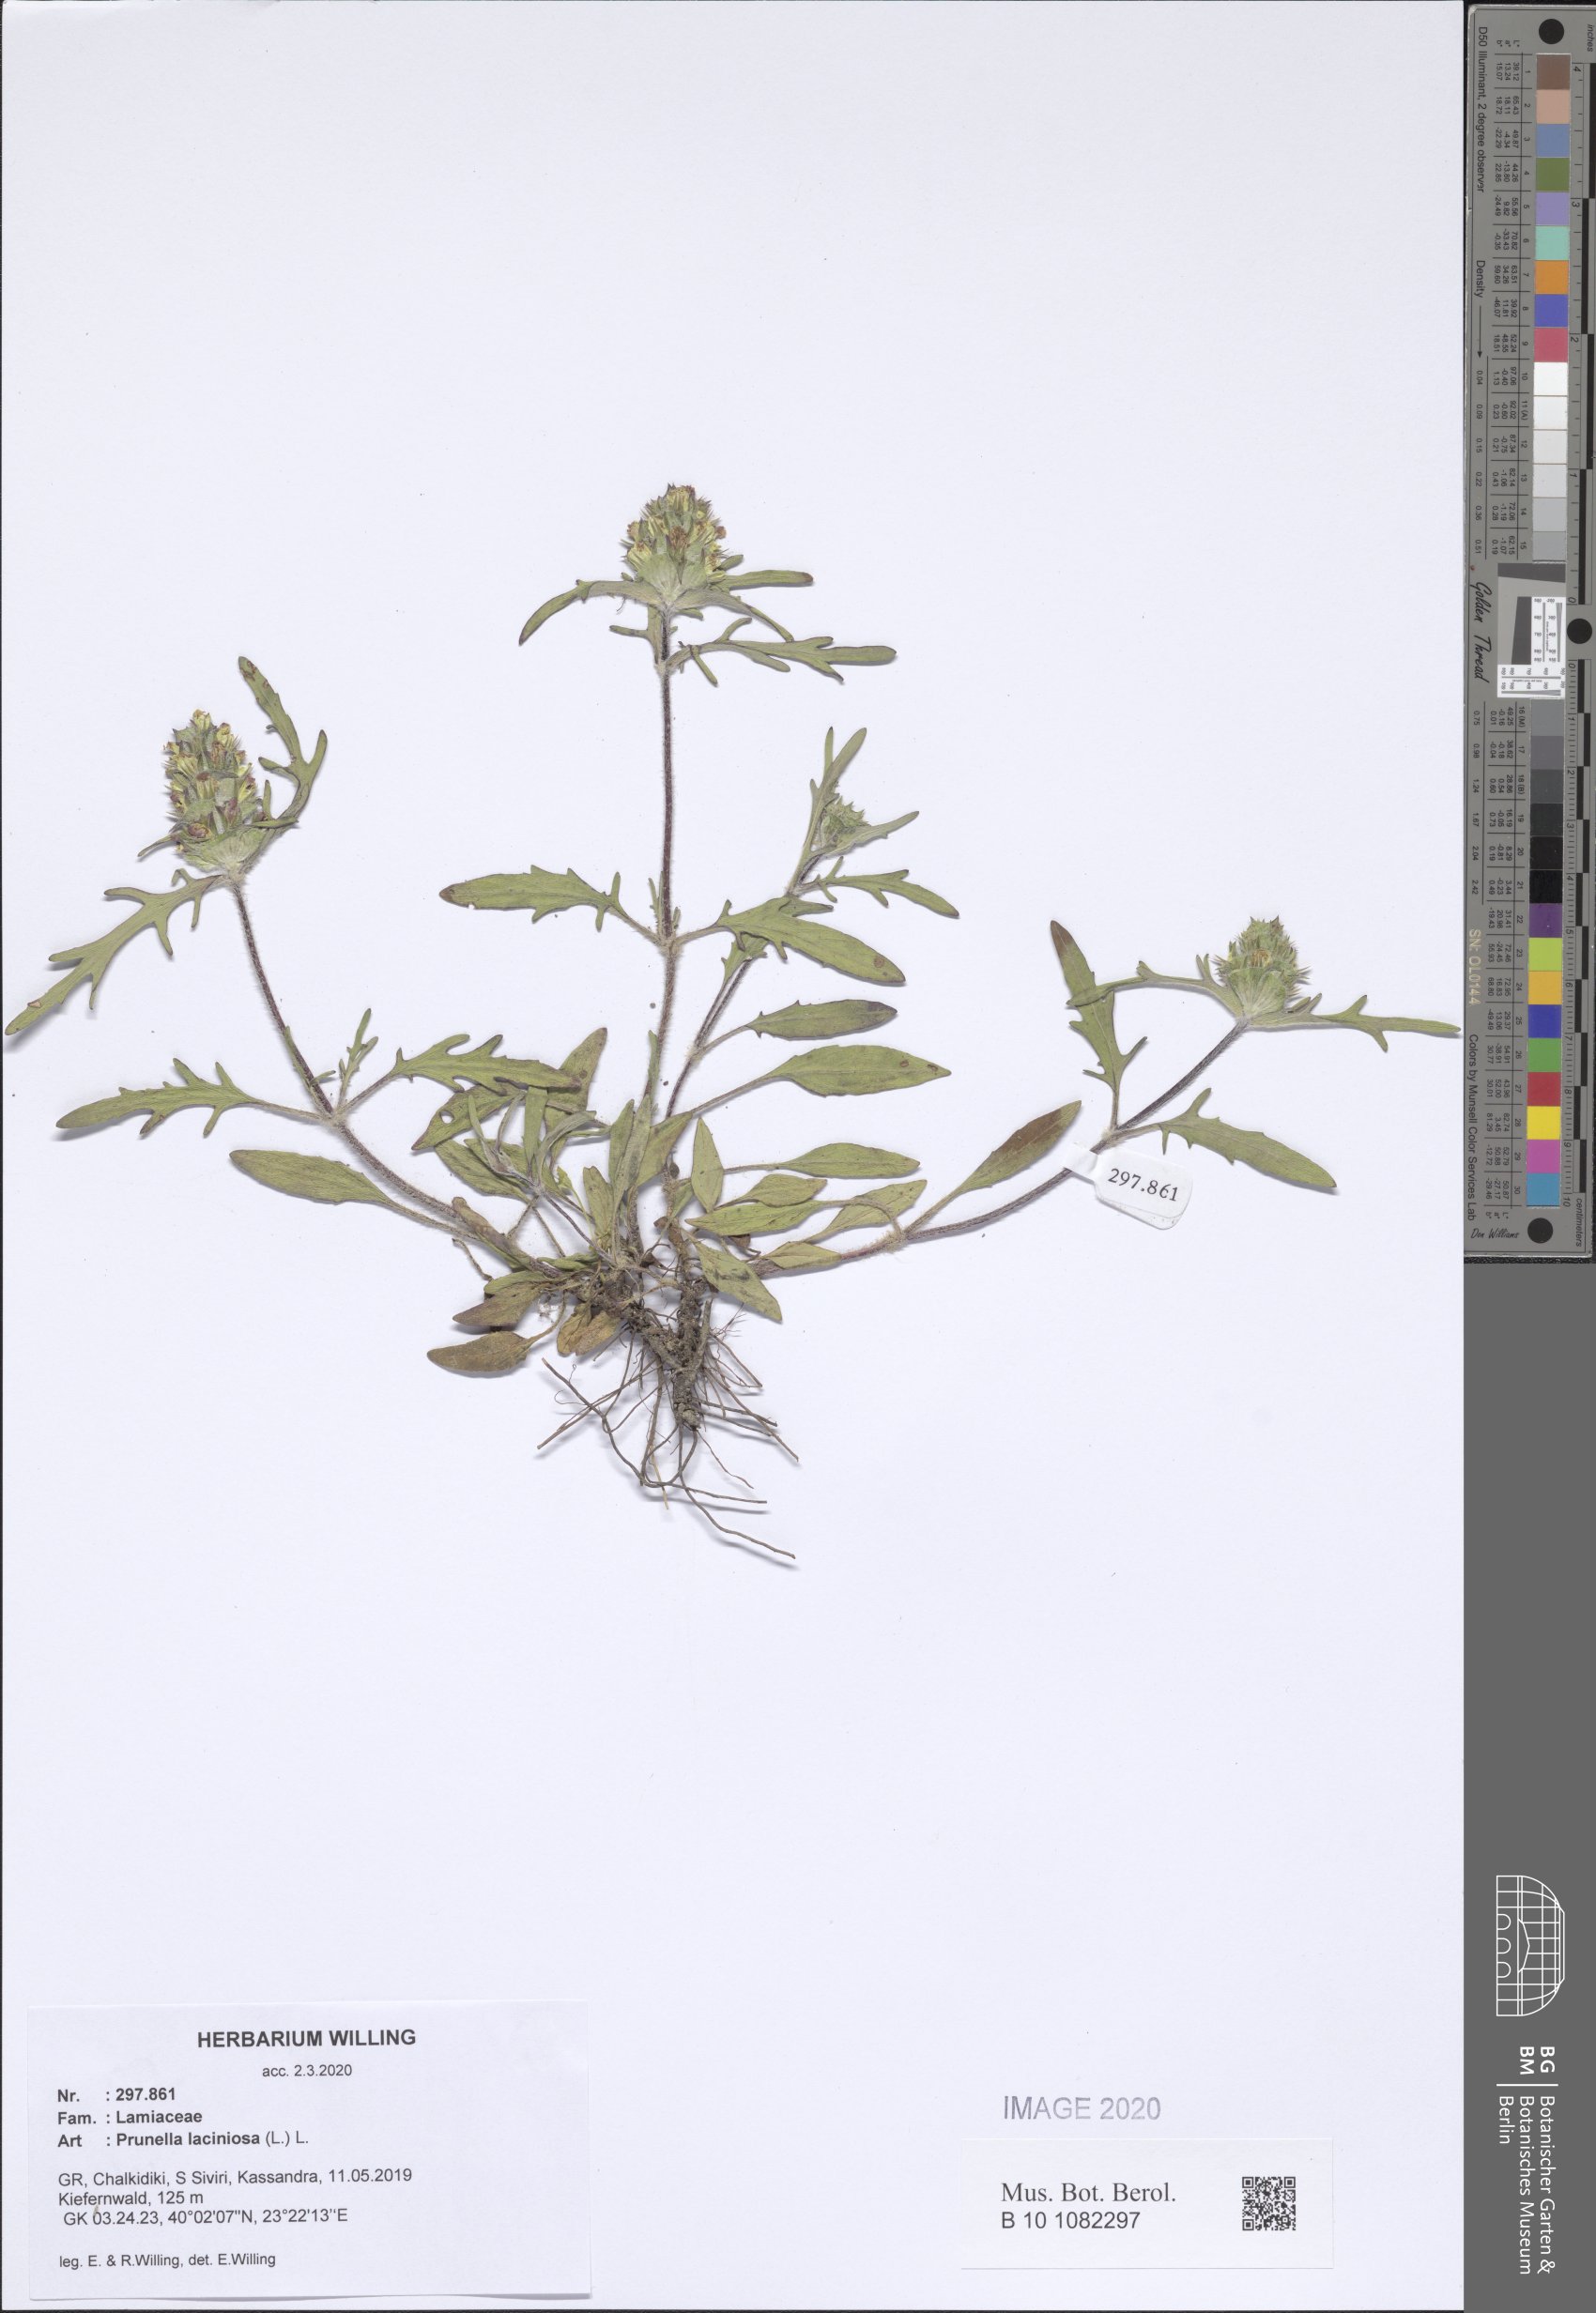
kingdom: Plantae
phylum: Tracheophyta
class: Magnoliopsida
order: Lamiales
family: Lamiaceae
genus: Prunella
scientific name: Prunella laciniata
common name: Cut-leaved selfheal
